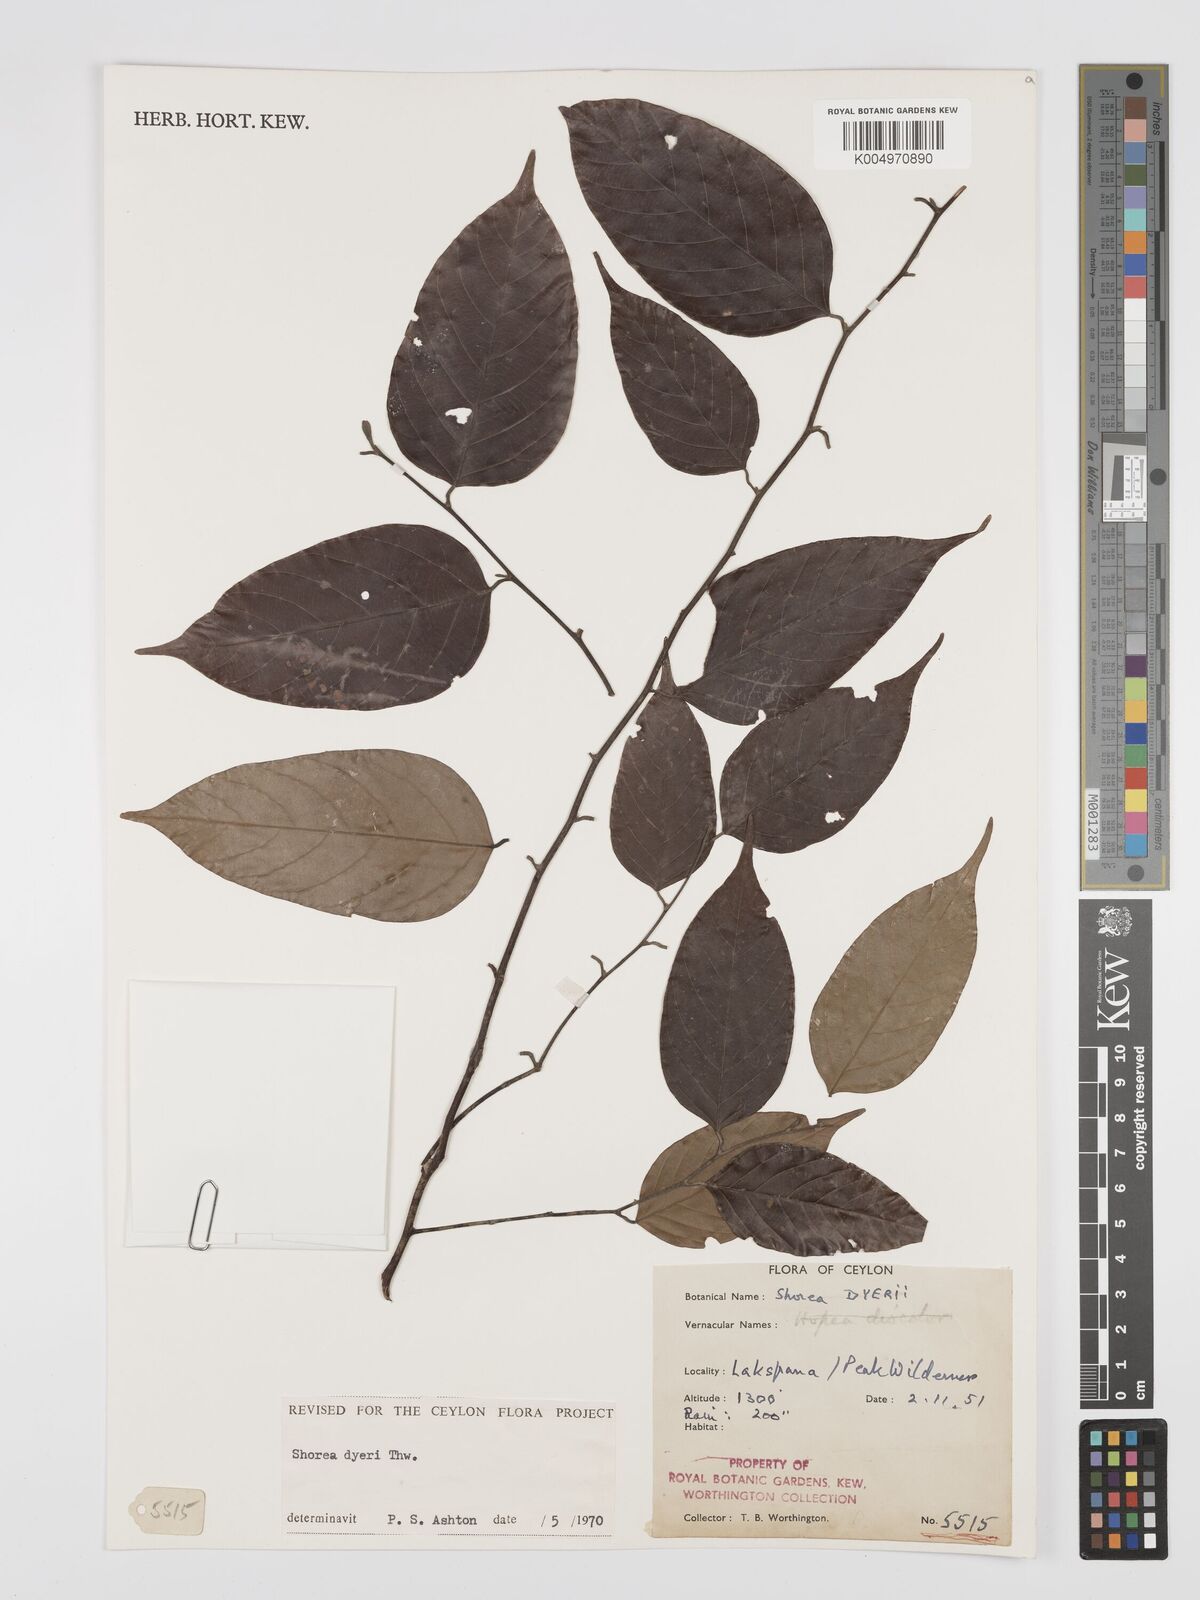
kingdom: Plantae
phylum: Tracheophyta
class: Magnoliopsida
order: Malvales
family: Dipterocarpaceae
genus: Shorea
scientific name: Shorea dyeri
